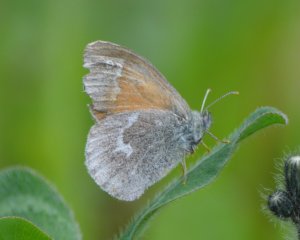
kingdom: Animalia
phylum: Arthropoda
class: Insecta
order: Lepidoptera
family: Nymphalidae
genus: Coenonympha
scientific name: Coenonympha tullia
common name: Large Heath
